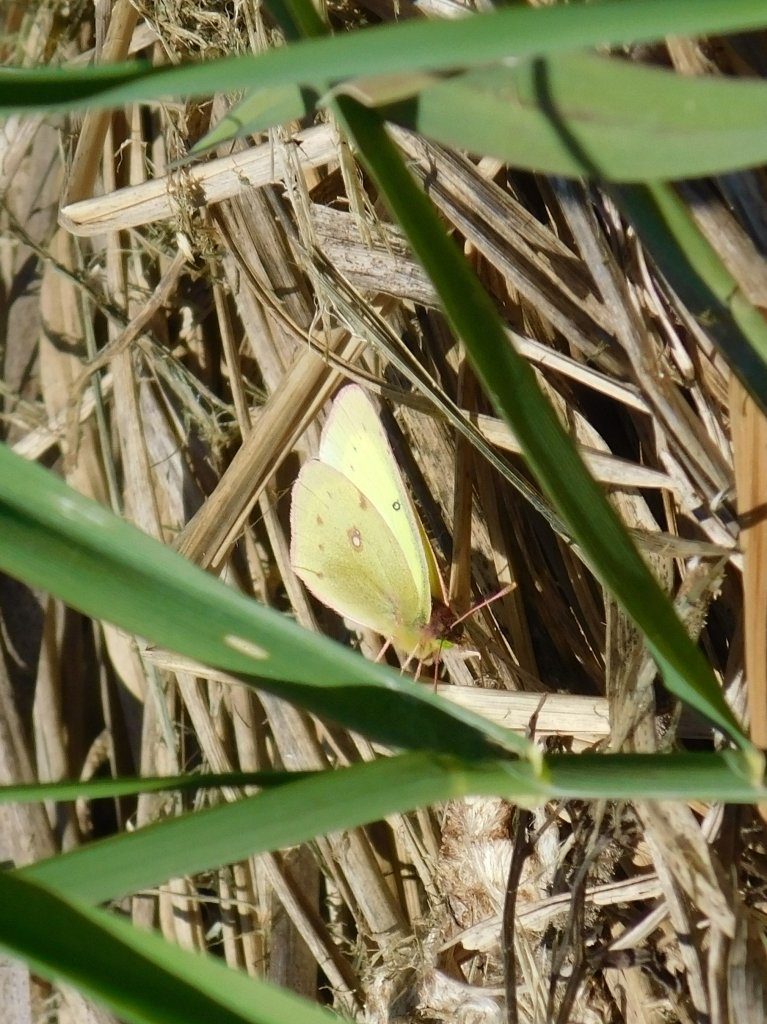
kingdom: Animalia
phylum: Arthropoda
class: Insecta
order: Lepidoptera
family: Pieridae
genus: Colias
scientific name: Colias philodice
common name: Clouded Sulphur
